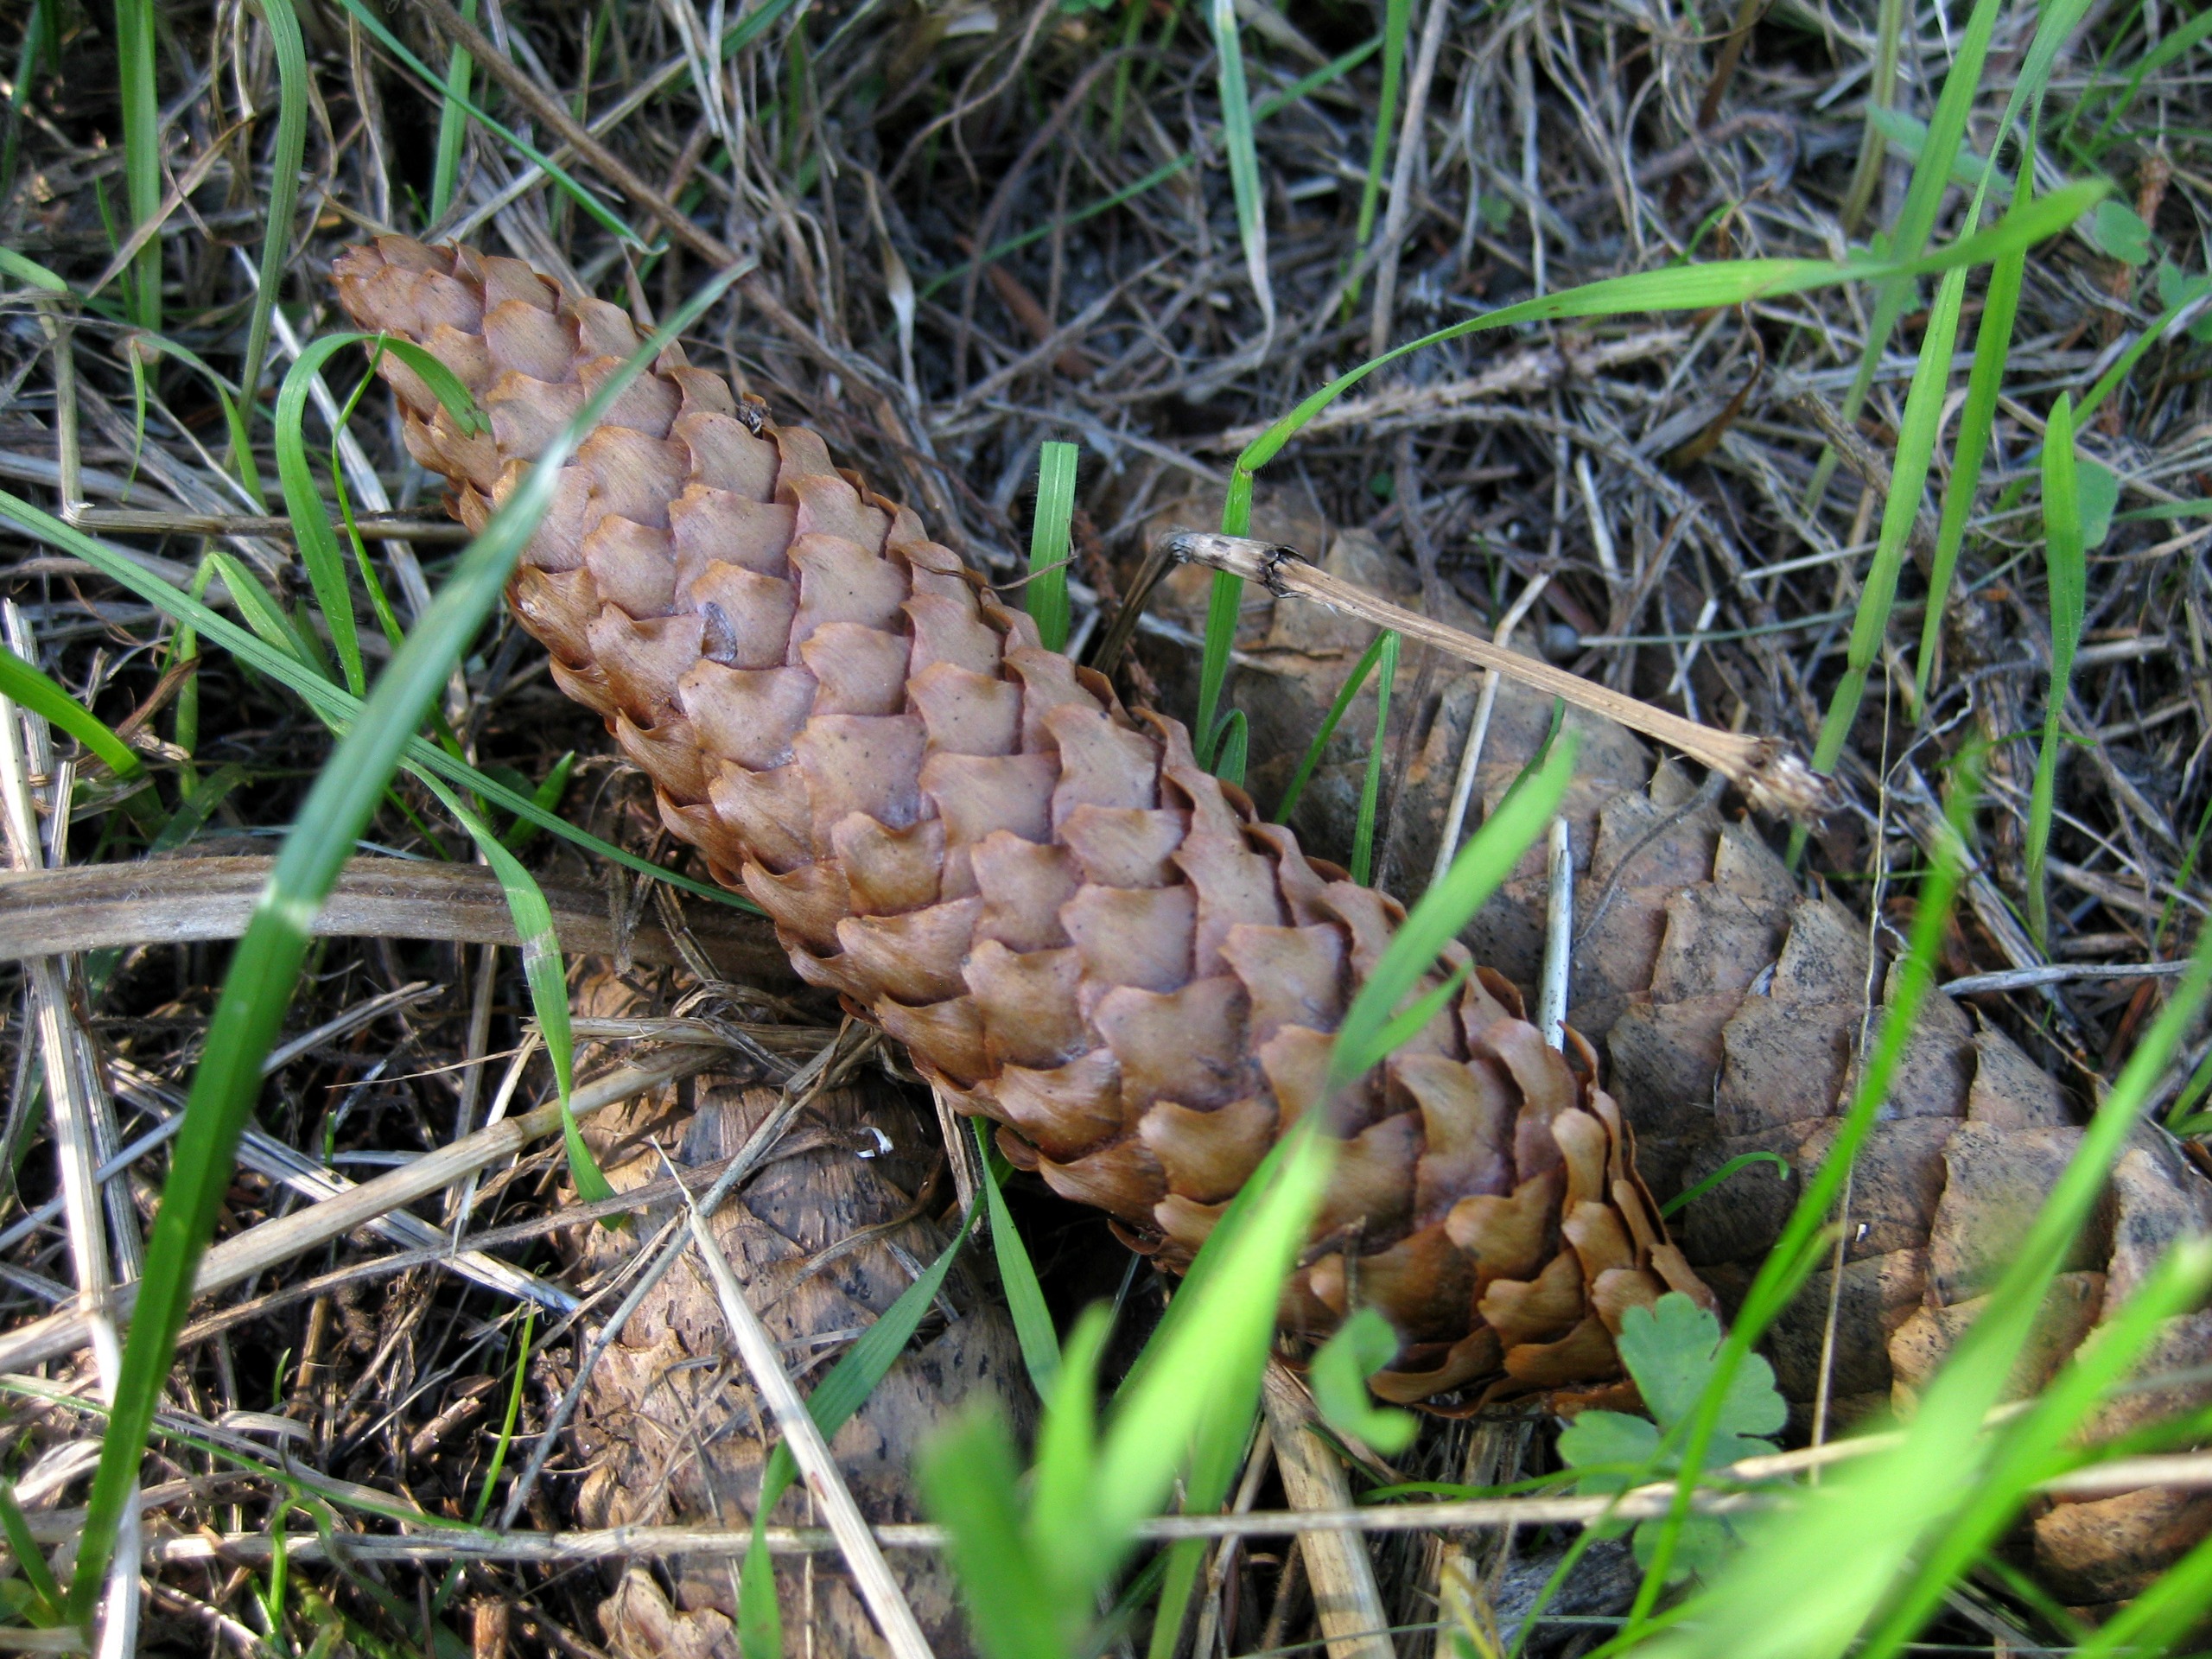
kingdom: Plantae
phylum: Tracheophyta
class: Pinopsida
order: Pinales
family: Pinaceae
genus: Picea
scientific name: Picea abies
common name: Rød-gran
